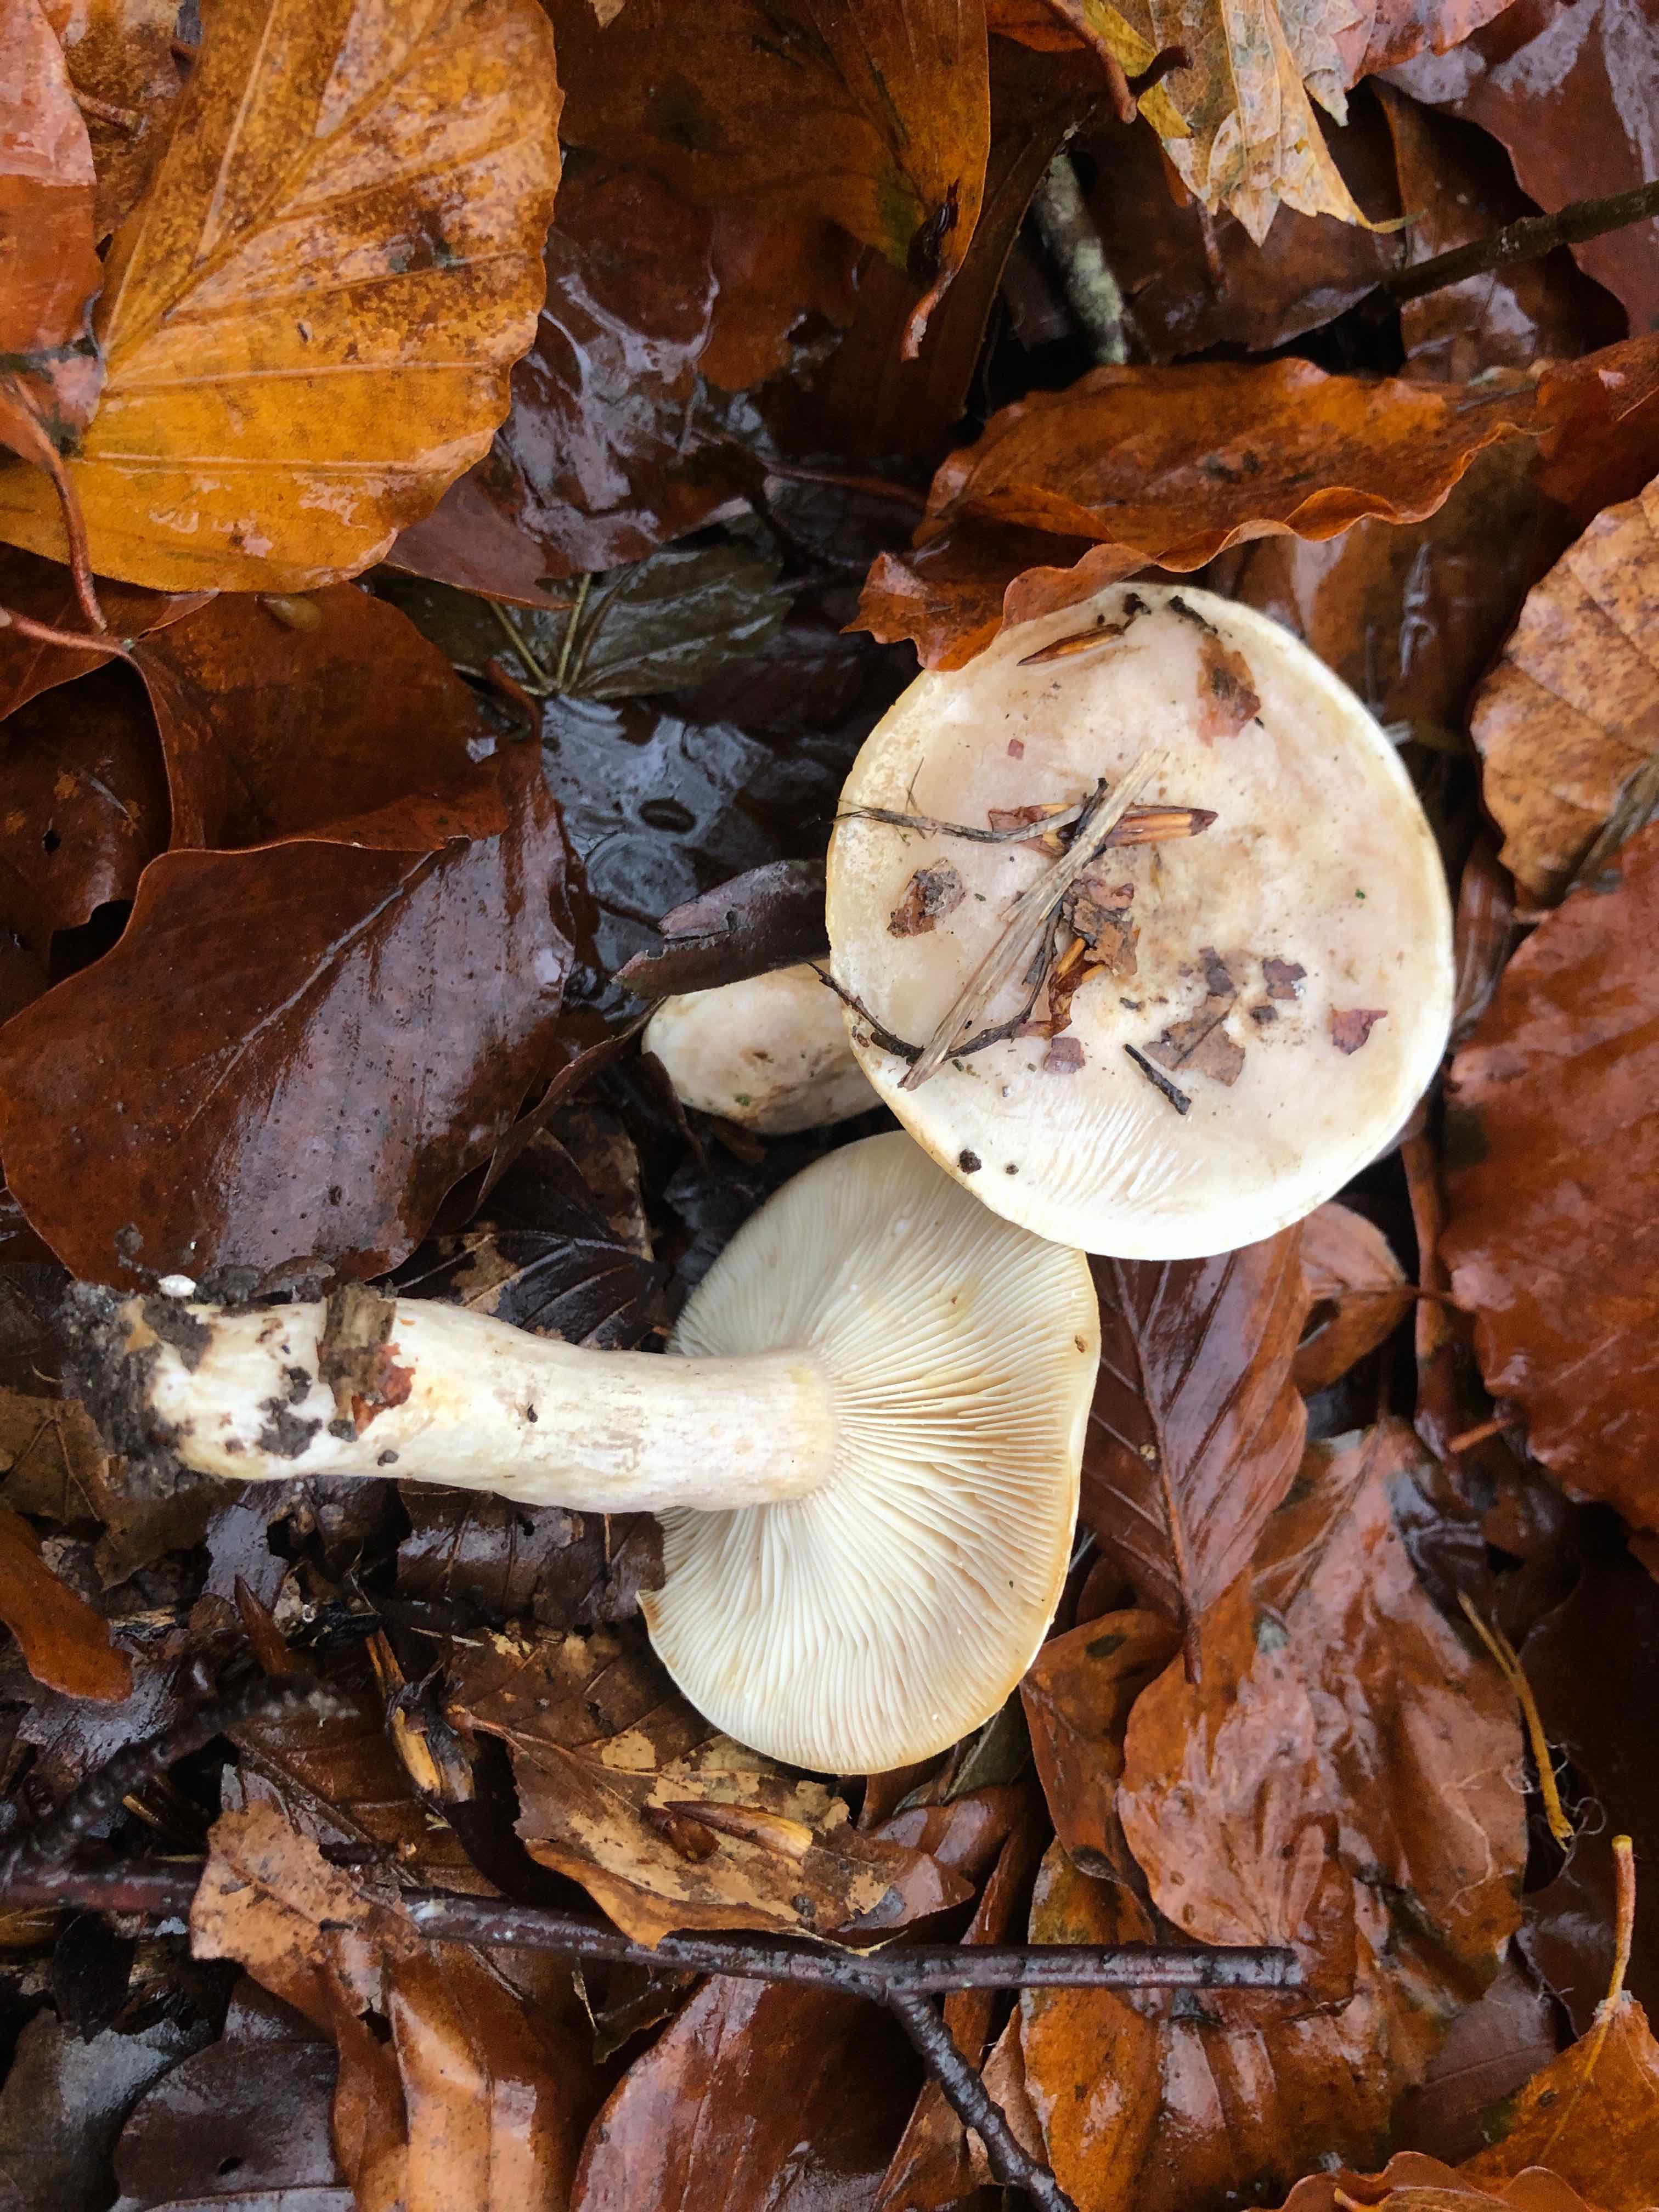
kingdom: Fungi
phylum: Basidiomycota
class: Agaricomycetes
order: Russulales
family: Russulaceae
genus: Lactarius
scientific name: Lactarius pallidus
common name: bleg mælkehat
